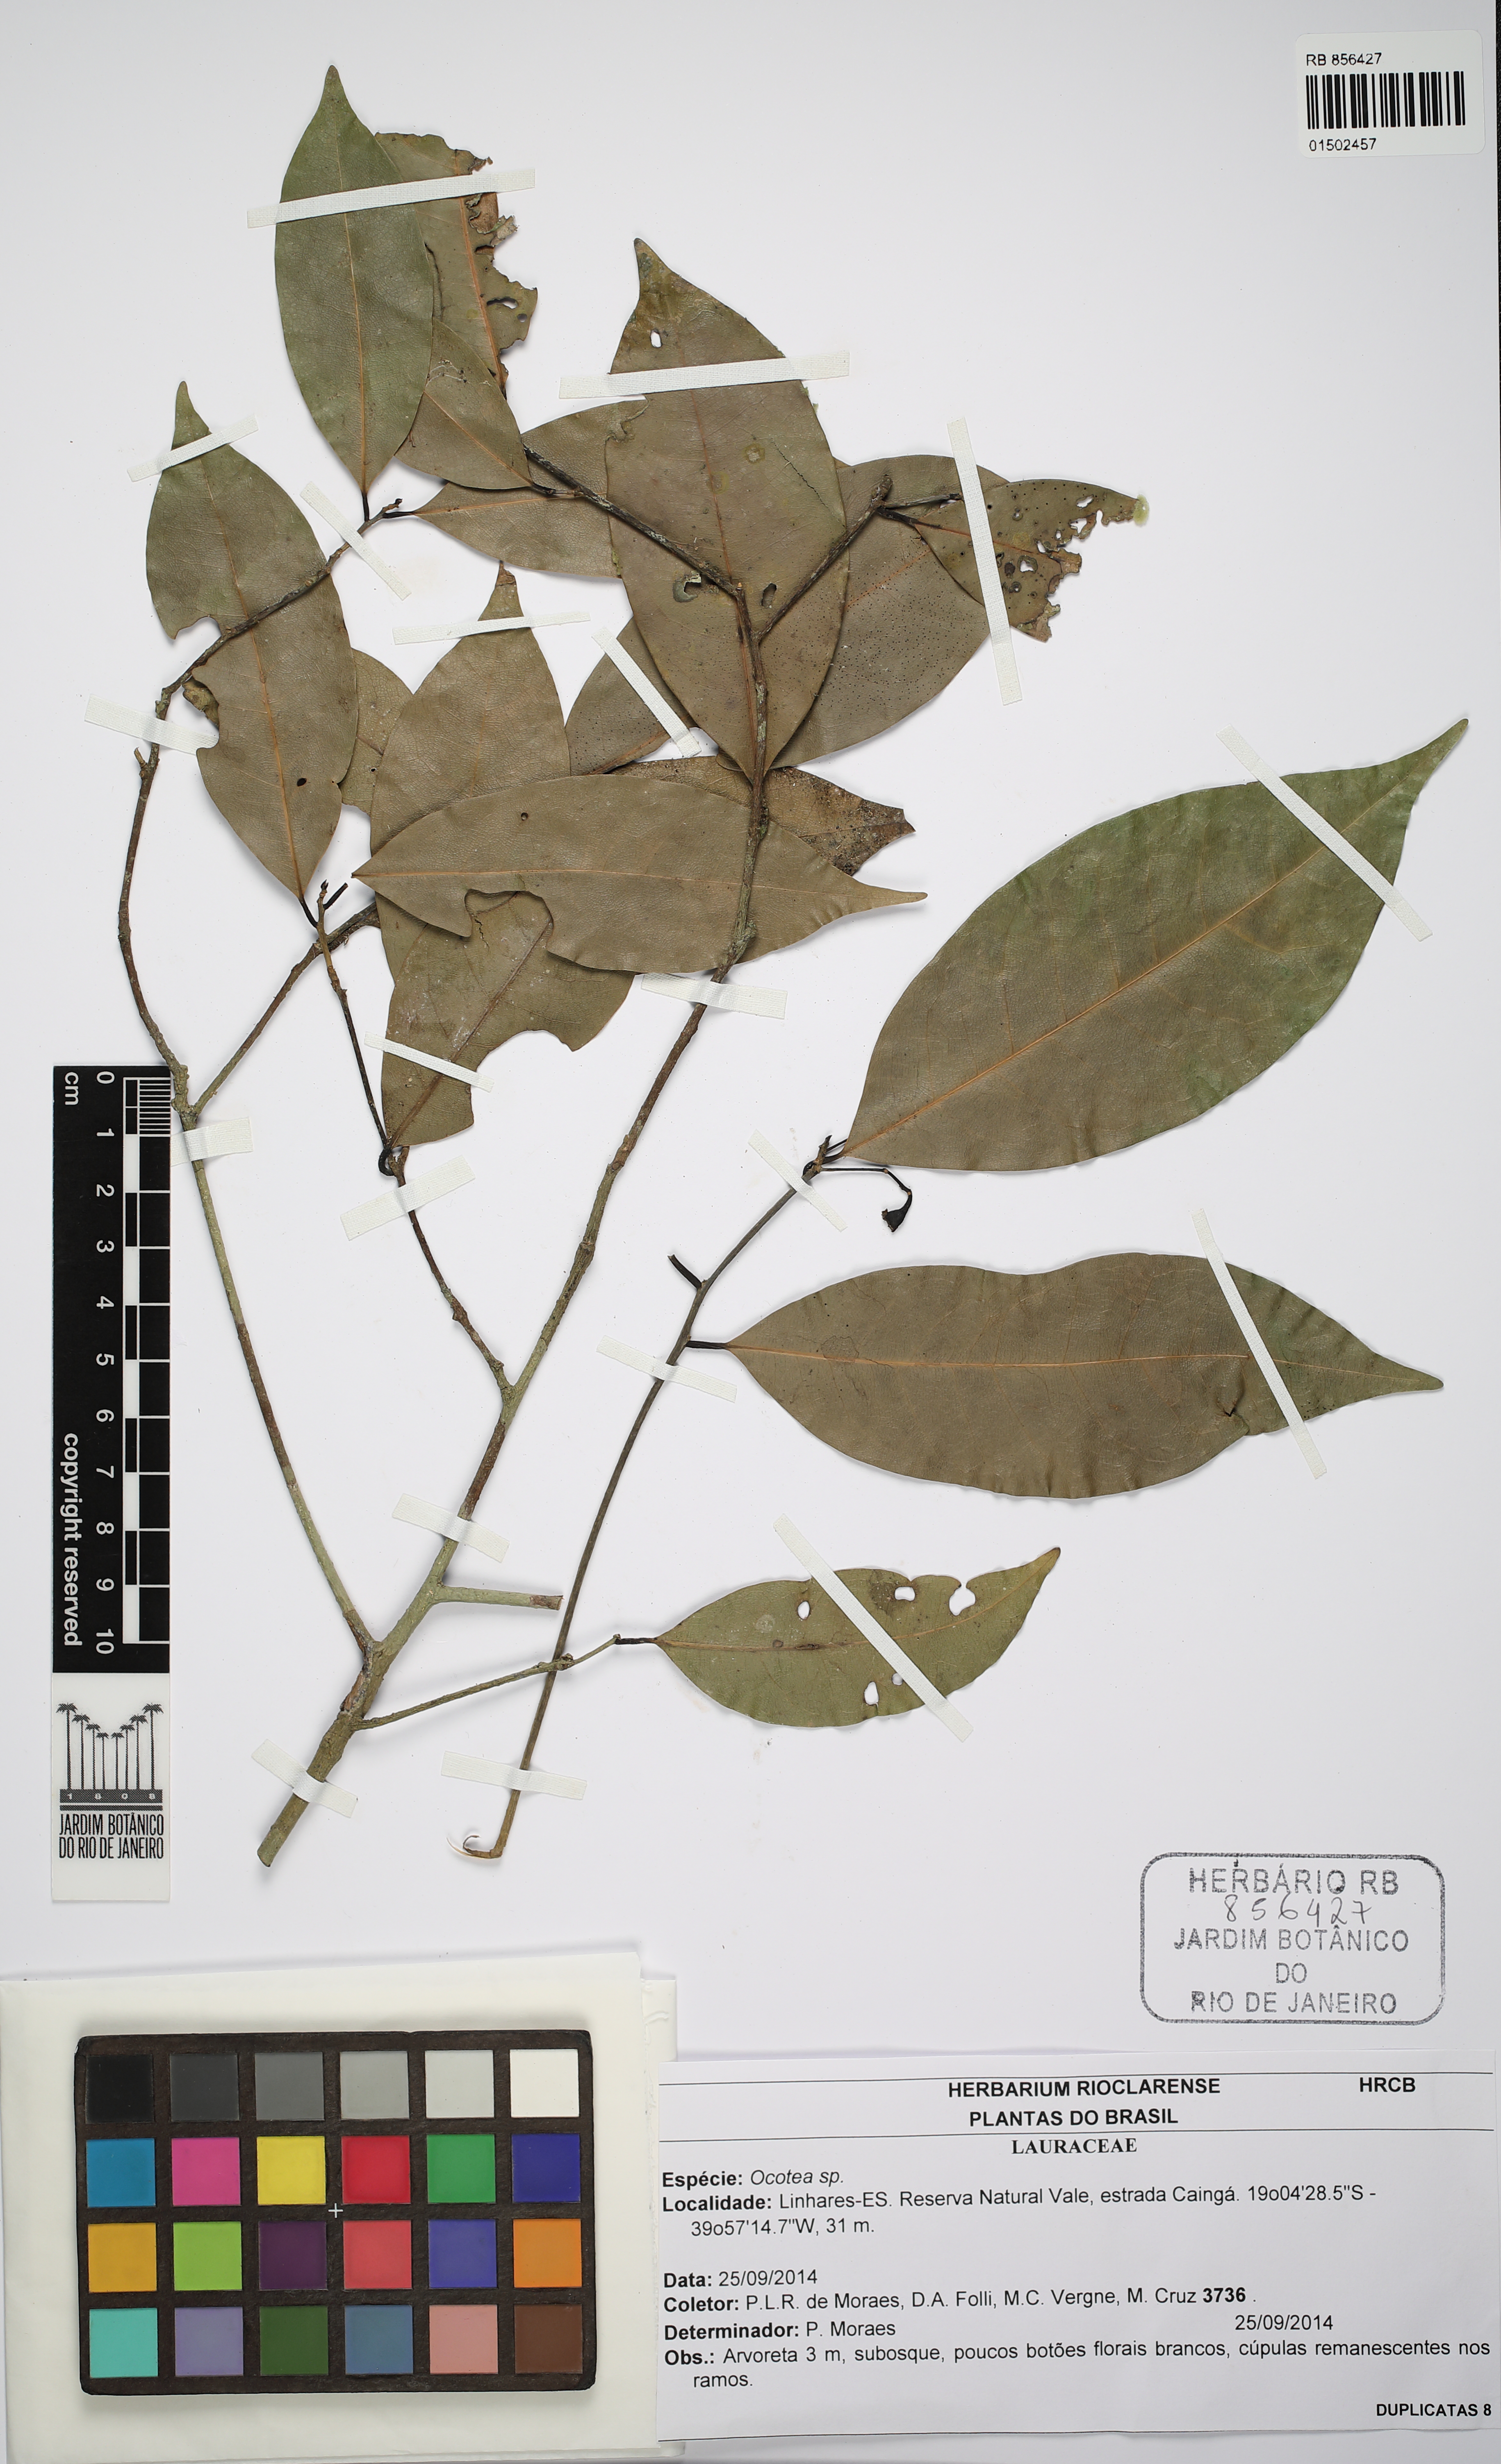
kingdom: Plantae
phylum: Tracheophyta
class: Magnoliopsida
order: Laurales
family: Lauraceae
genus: Ocotea
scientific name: Ocotea
